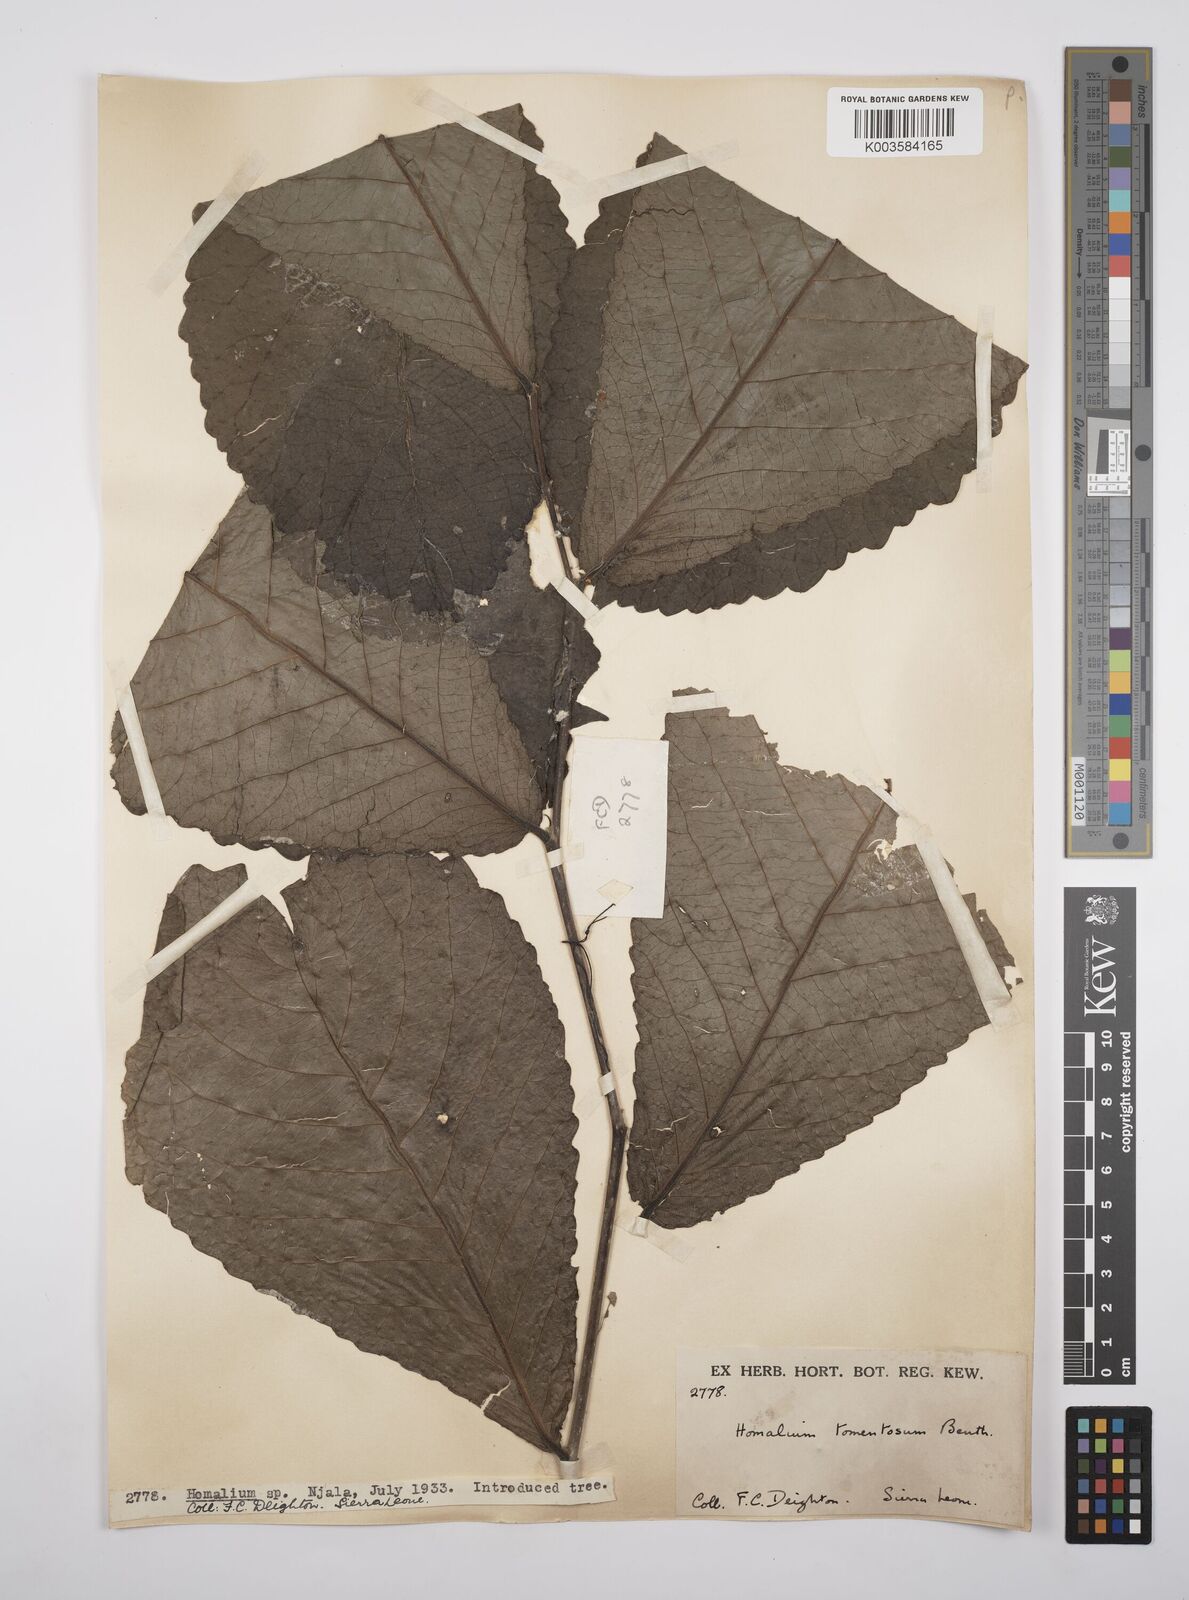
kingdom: Plantae
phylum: Tracheophyta
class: Magnoliopsida
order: Malpighiales
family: Salicaceae
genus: Homalium
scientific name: Homalium tomentosum
